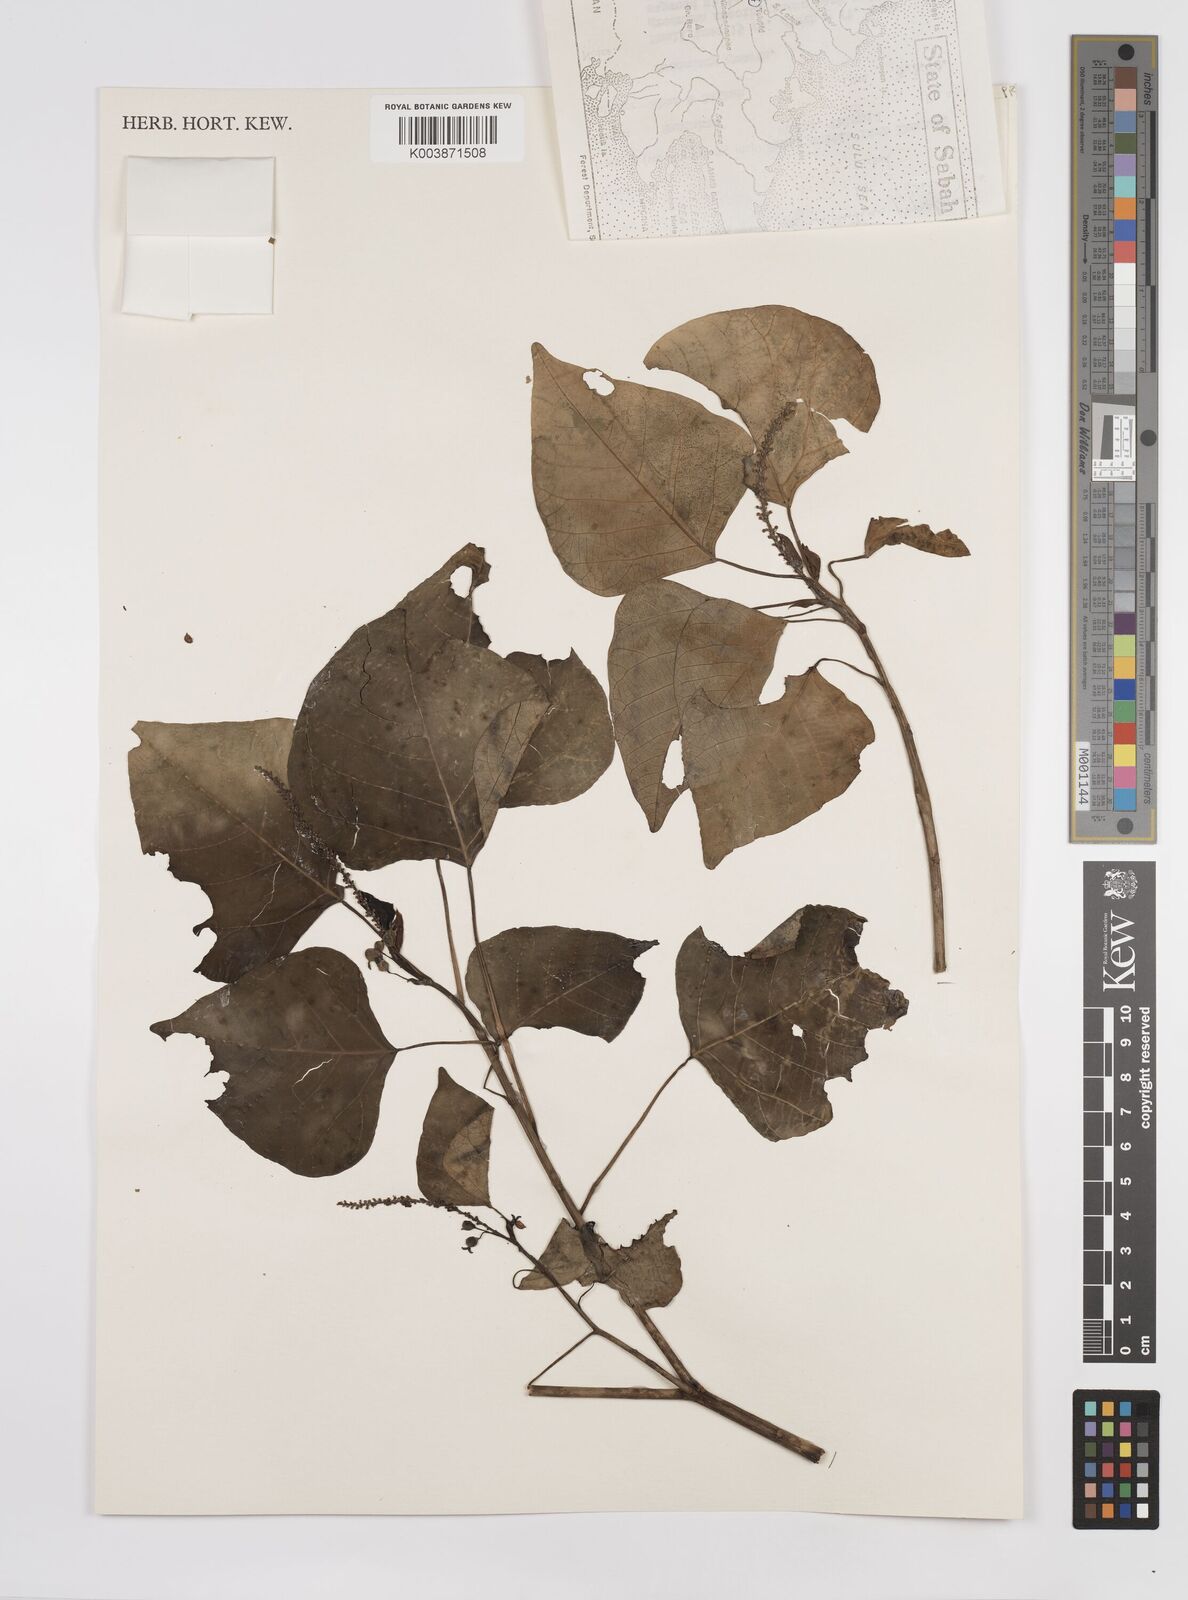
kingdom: Plantae
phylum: Tracheophyta
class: Magnoliopsida
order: Malpighiales
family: Euphorbiaceae
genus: Homalanthus
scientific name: Homalanthus populneus
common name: Spurge
